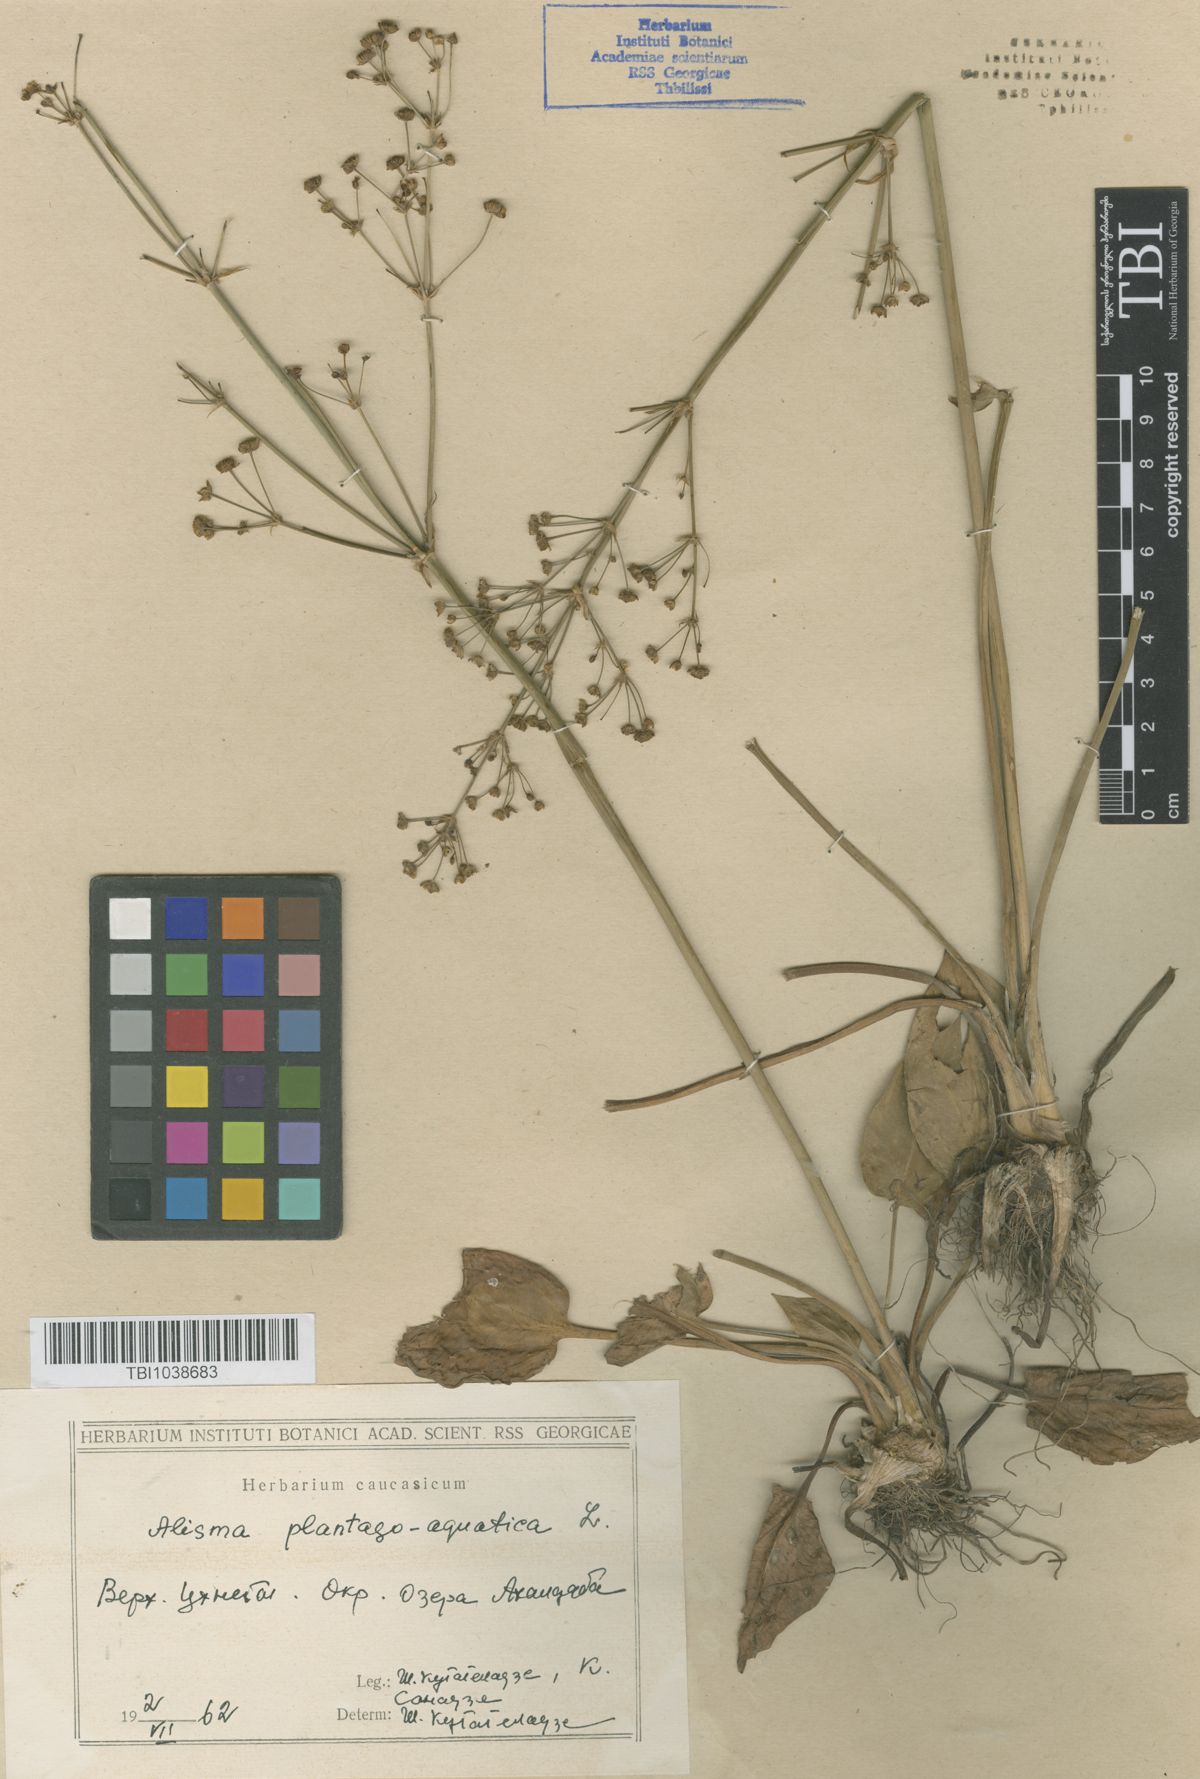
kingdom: Plantae
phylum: Tracheophyta
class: Liliopsida
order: Alismatales
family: Alismataceae
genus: Alisma
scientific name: Alisma plantago-aquatica
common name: Water-plantain
